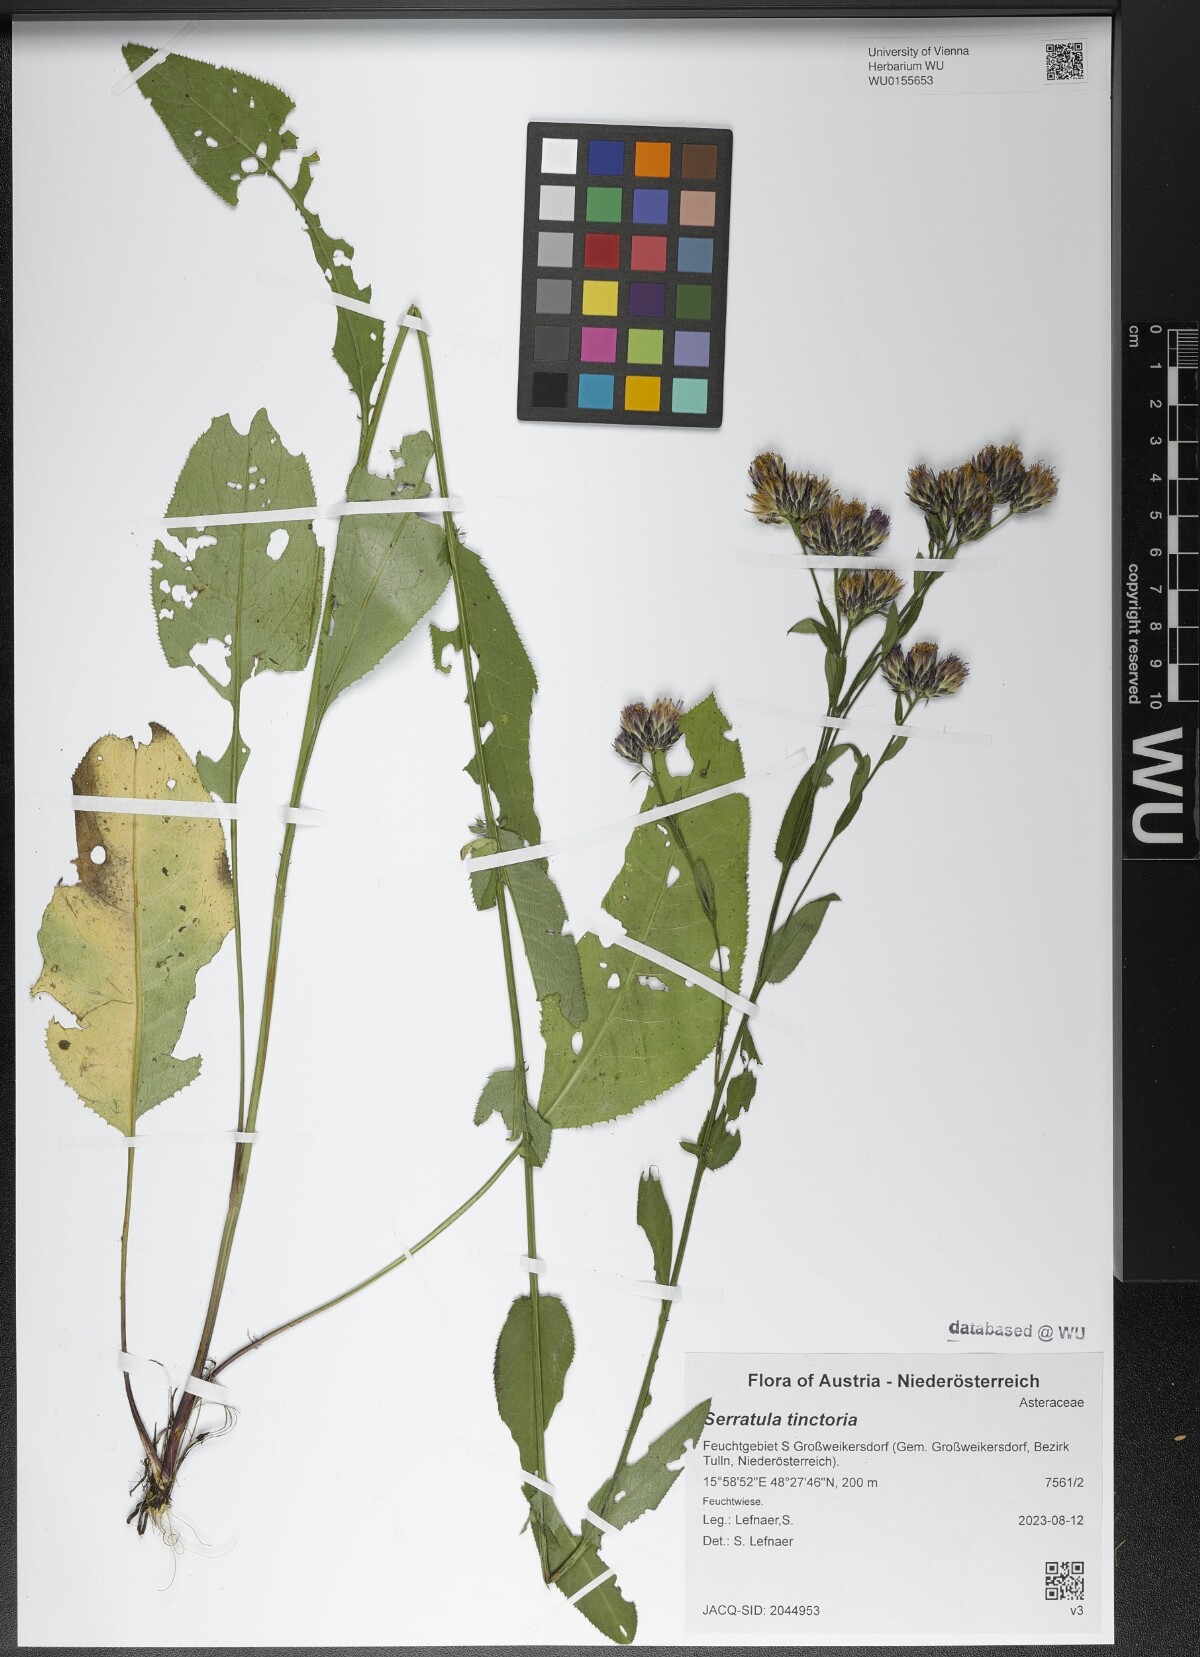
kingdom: Plantae
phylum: Tracheophyta
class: Magnoliopsida
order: Asterales
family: Asteraceae
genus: Serratula
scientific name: Serratula tinctoria
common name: Saw-wort
